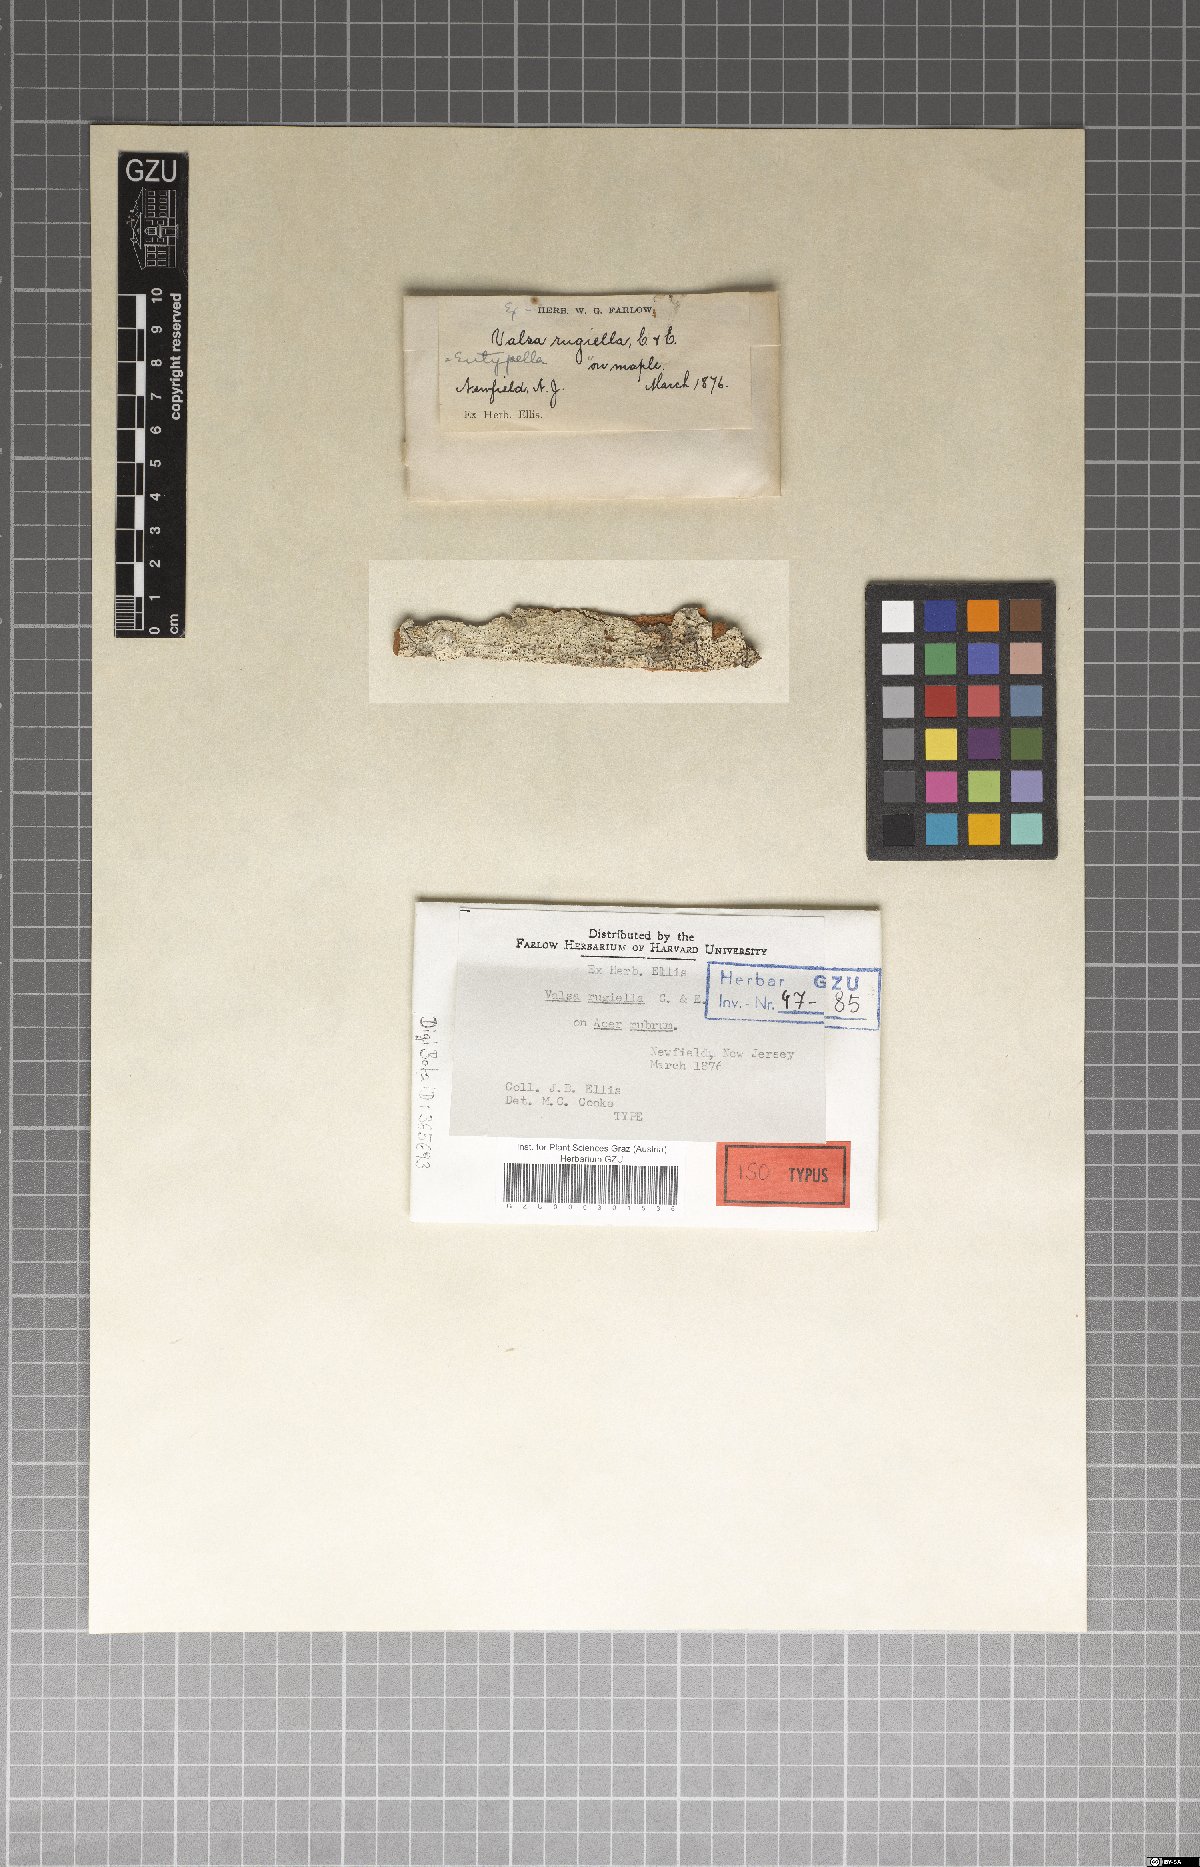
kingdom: Fungi
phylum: Ascomycota
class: Sordariomycetes
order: Diaporthales
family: Valsaceae
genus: Valsa
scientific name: Valsa
